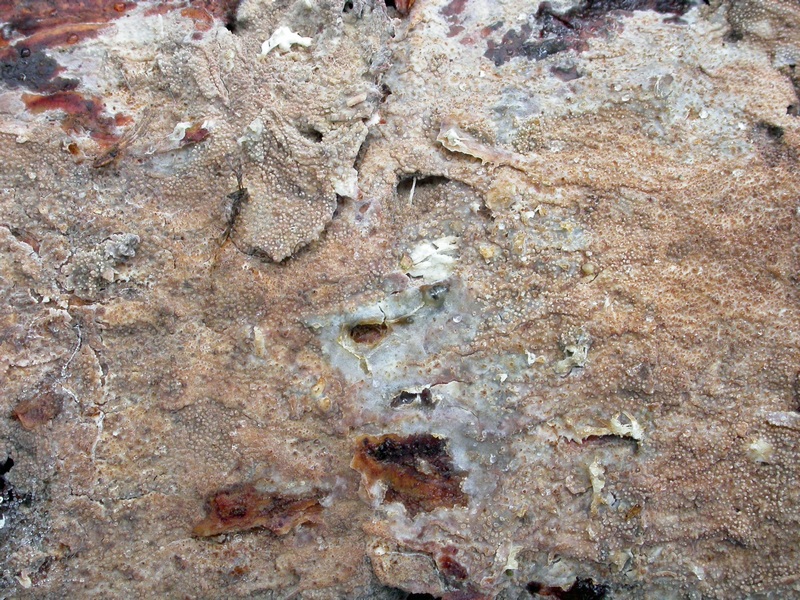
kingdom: Fungi
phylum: Basidiomycota
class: Agaricomycetes
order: Hymenochaetales
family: Rickenellaceae
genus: Resinicium
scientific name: Resinicium bicolor
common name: almindelig vokstand
